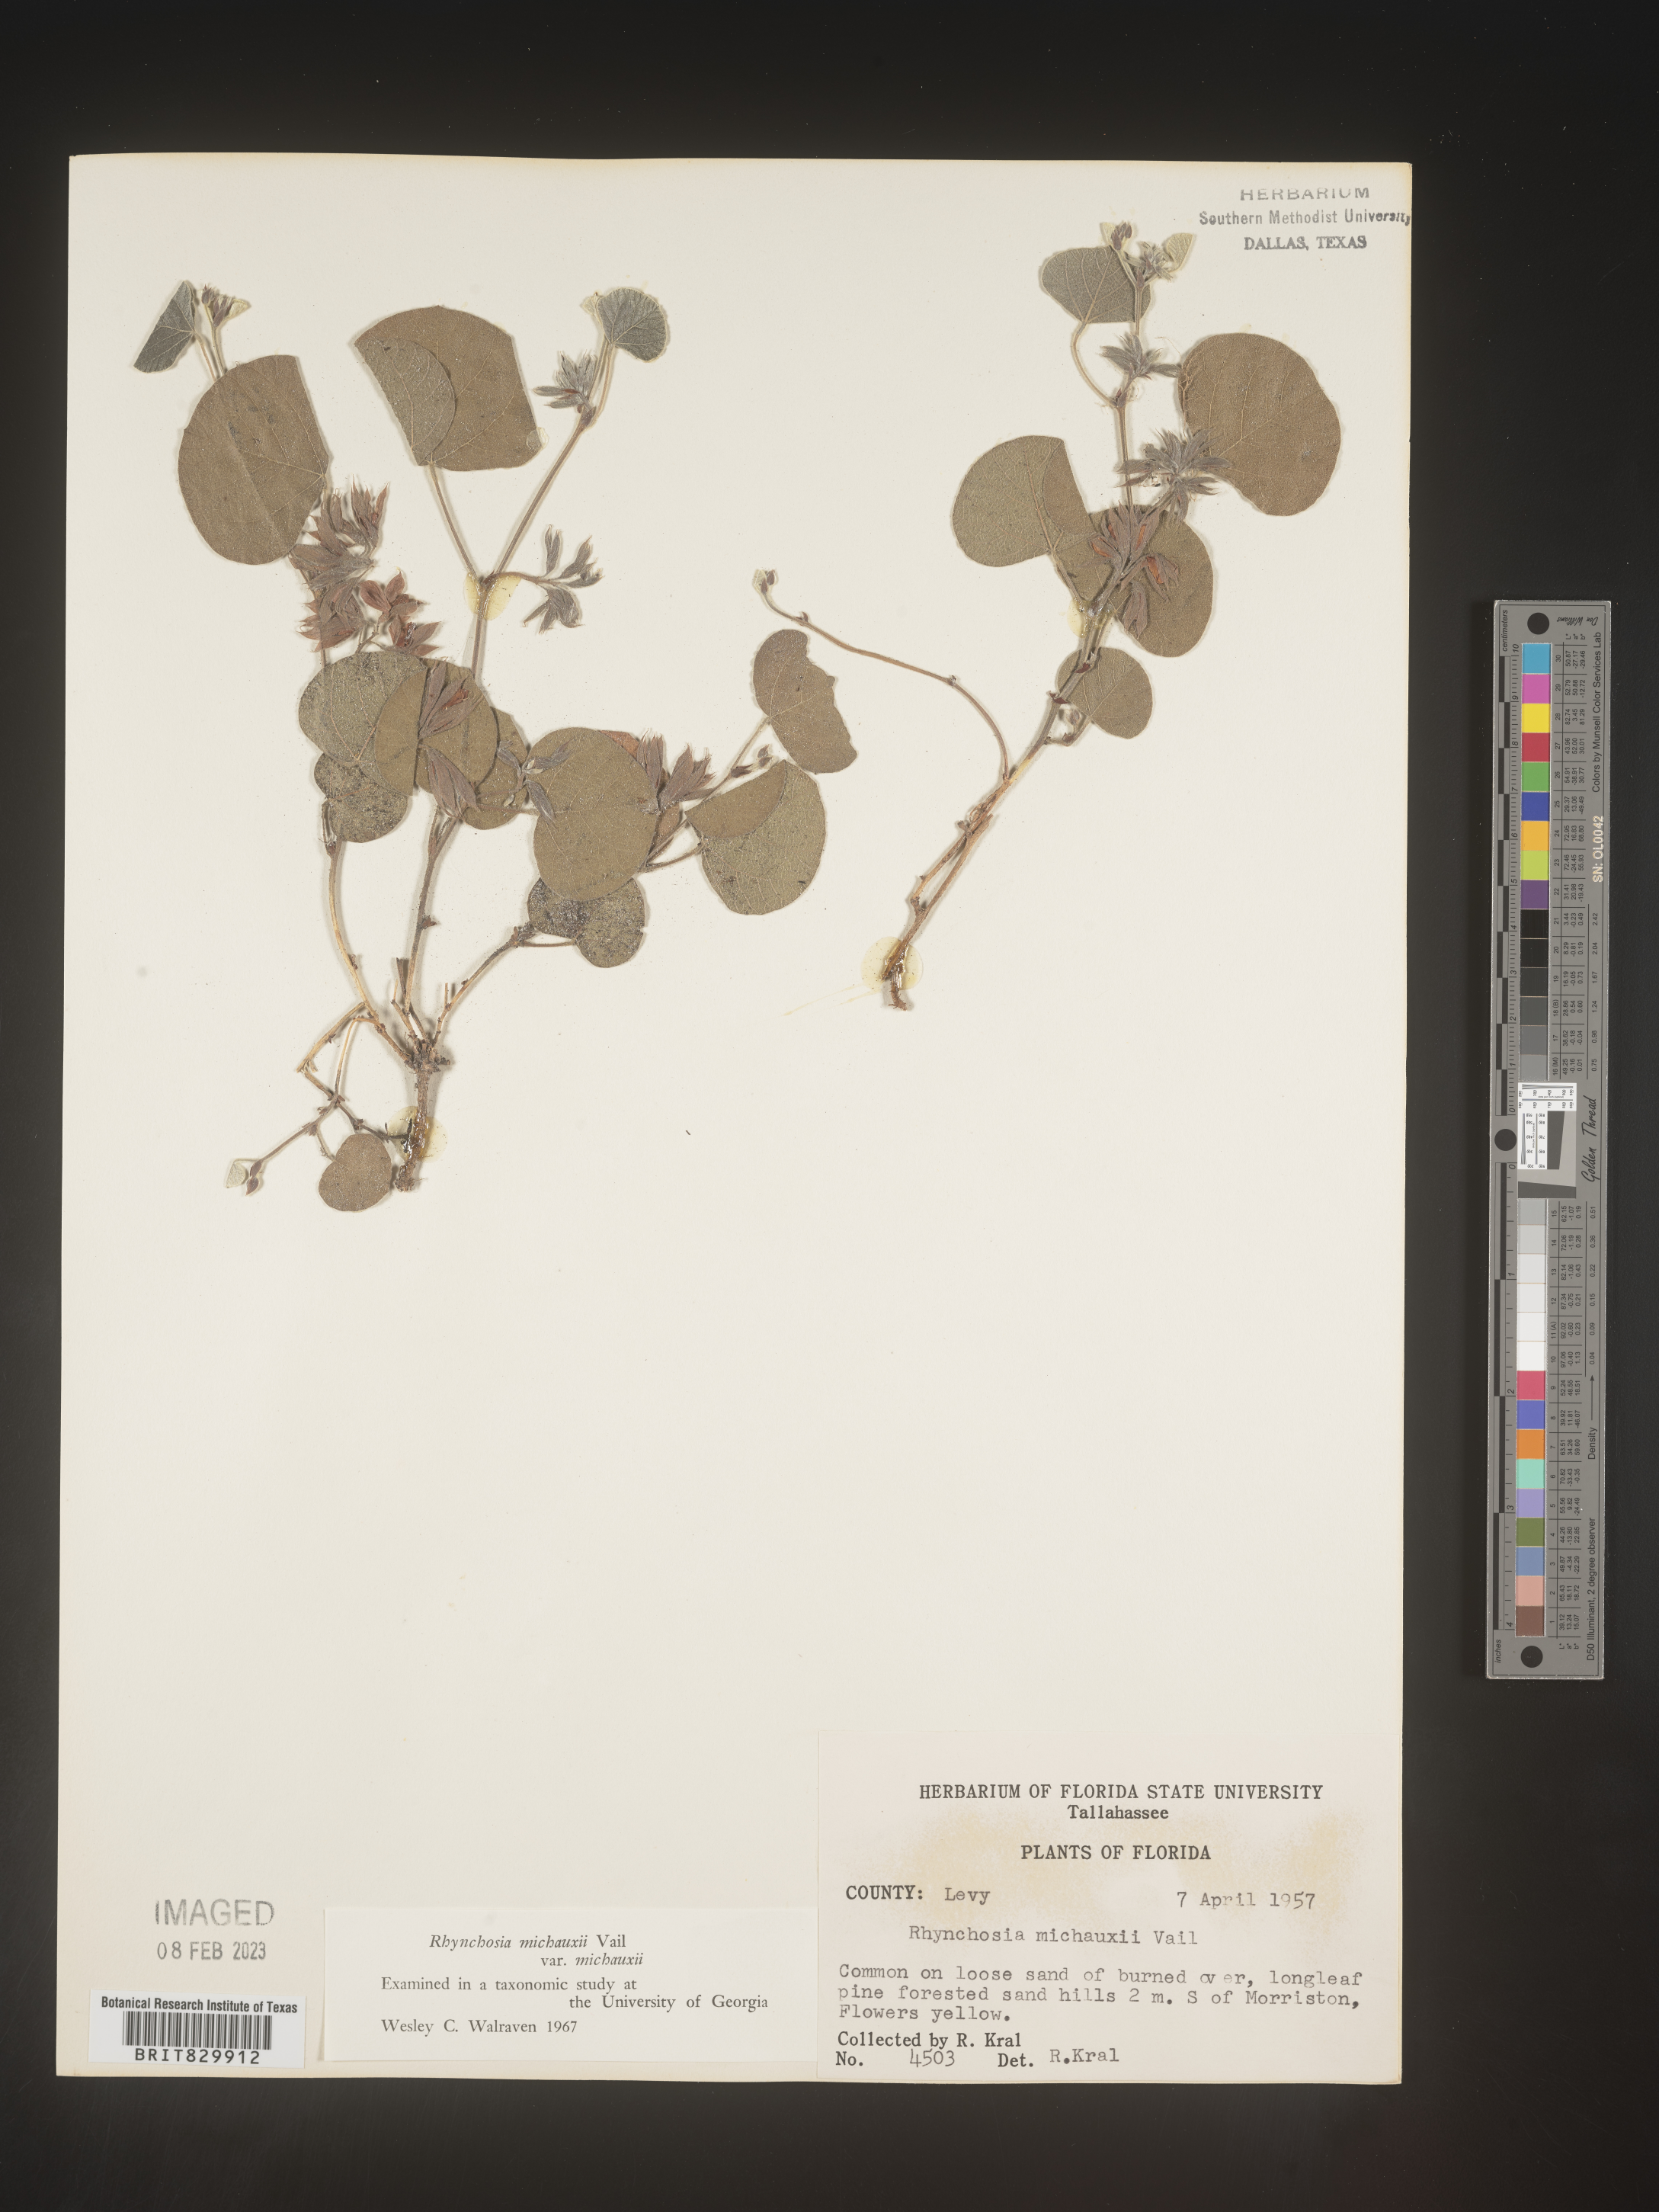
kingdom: Plantae
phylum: Tracheophyta
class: Magnoliopsida
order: Fabales
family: Fabaceae
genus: Rhynchosia
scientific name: Rhynchosia
